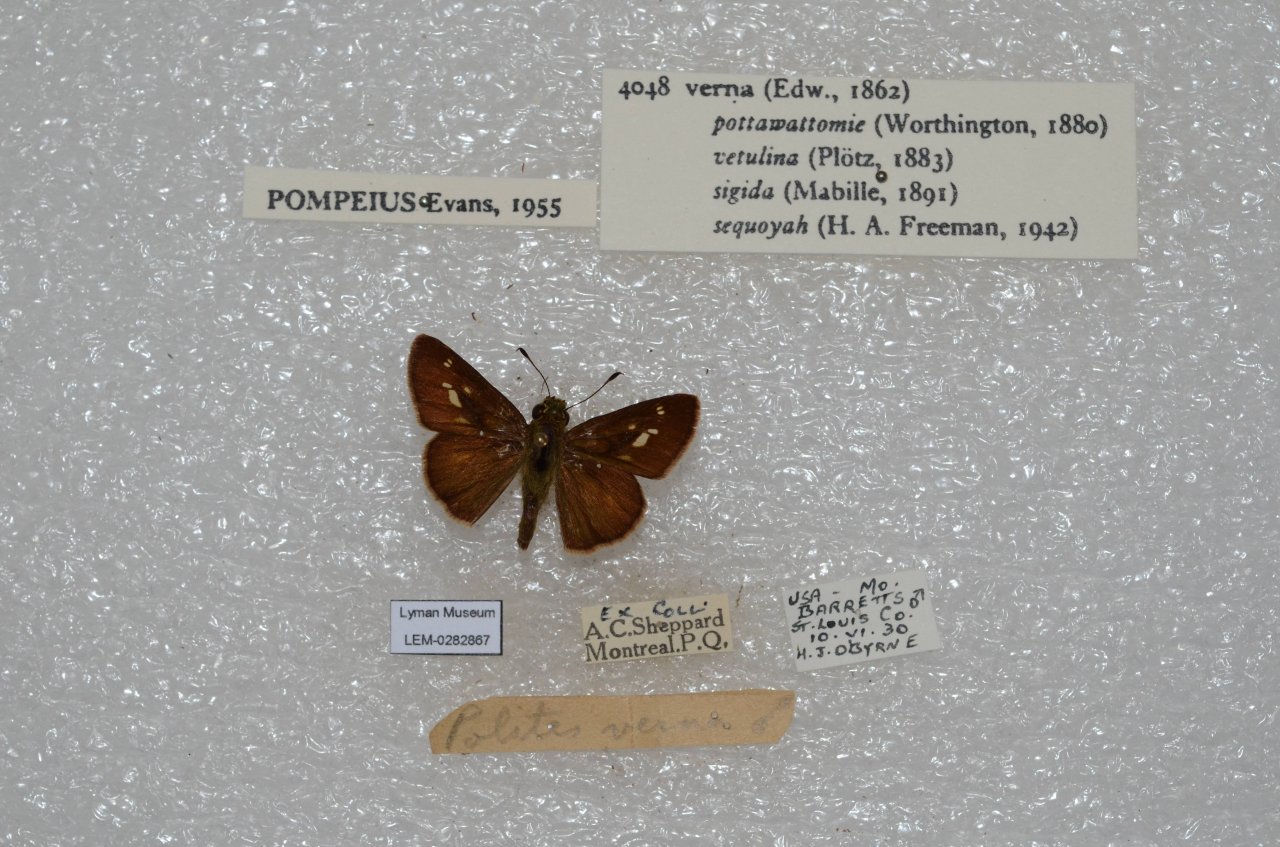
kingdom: Animalia
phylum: Arthropoda
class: Insecta
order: Lepidoptera
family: Hesperiidae
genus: Vernia
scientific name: Vernia verna
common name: Little Glassywing
